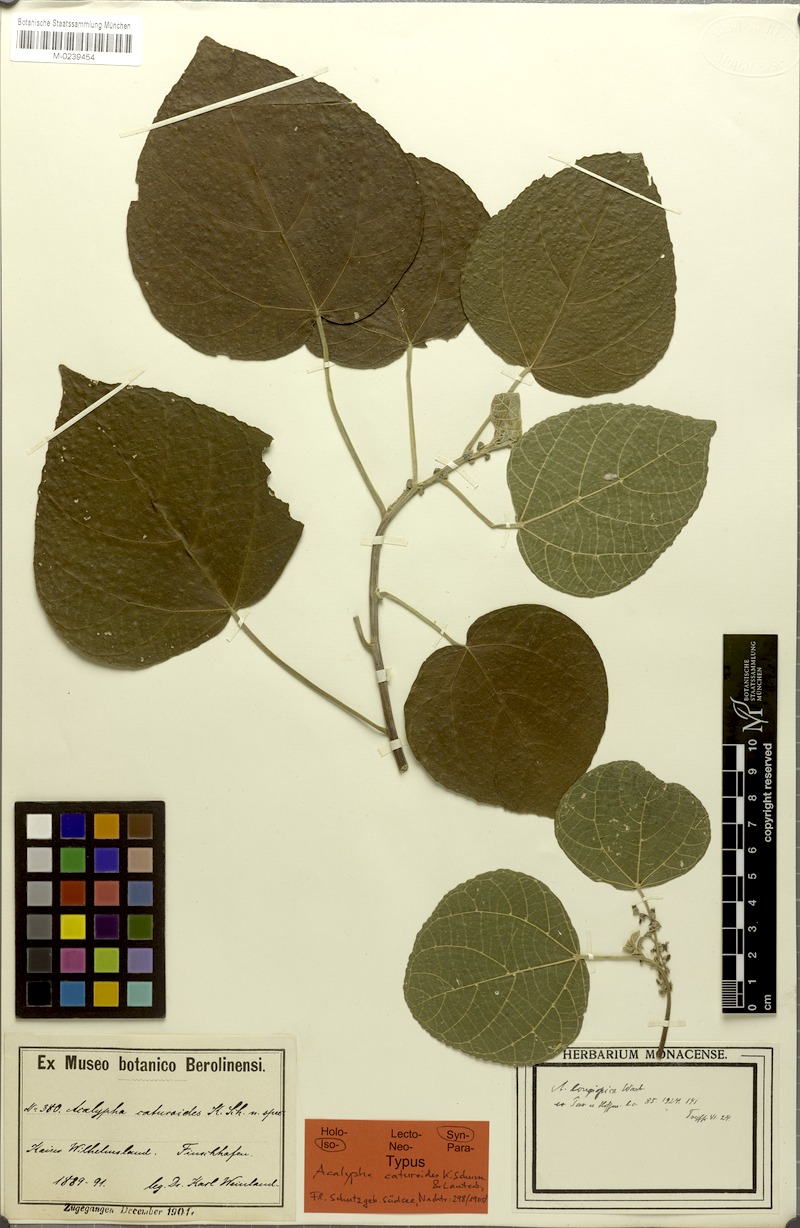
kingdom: Plantae
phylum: Tracheophyta
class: Magnoliopsida
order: Malpighiales
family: Euphorbiaceae
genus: Acalypha
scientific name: Acalypha longispica
